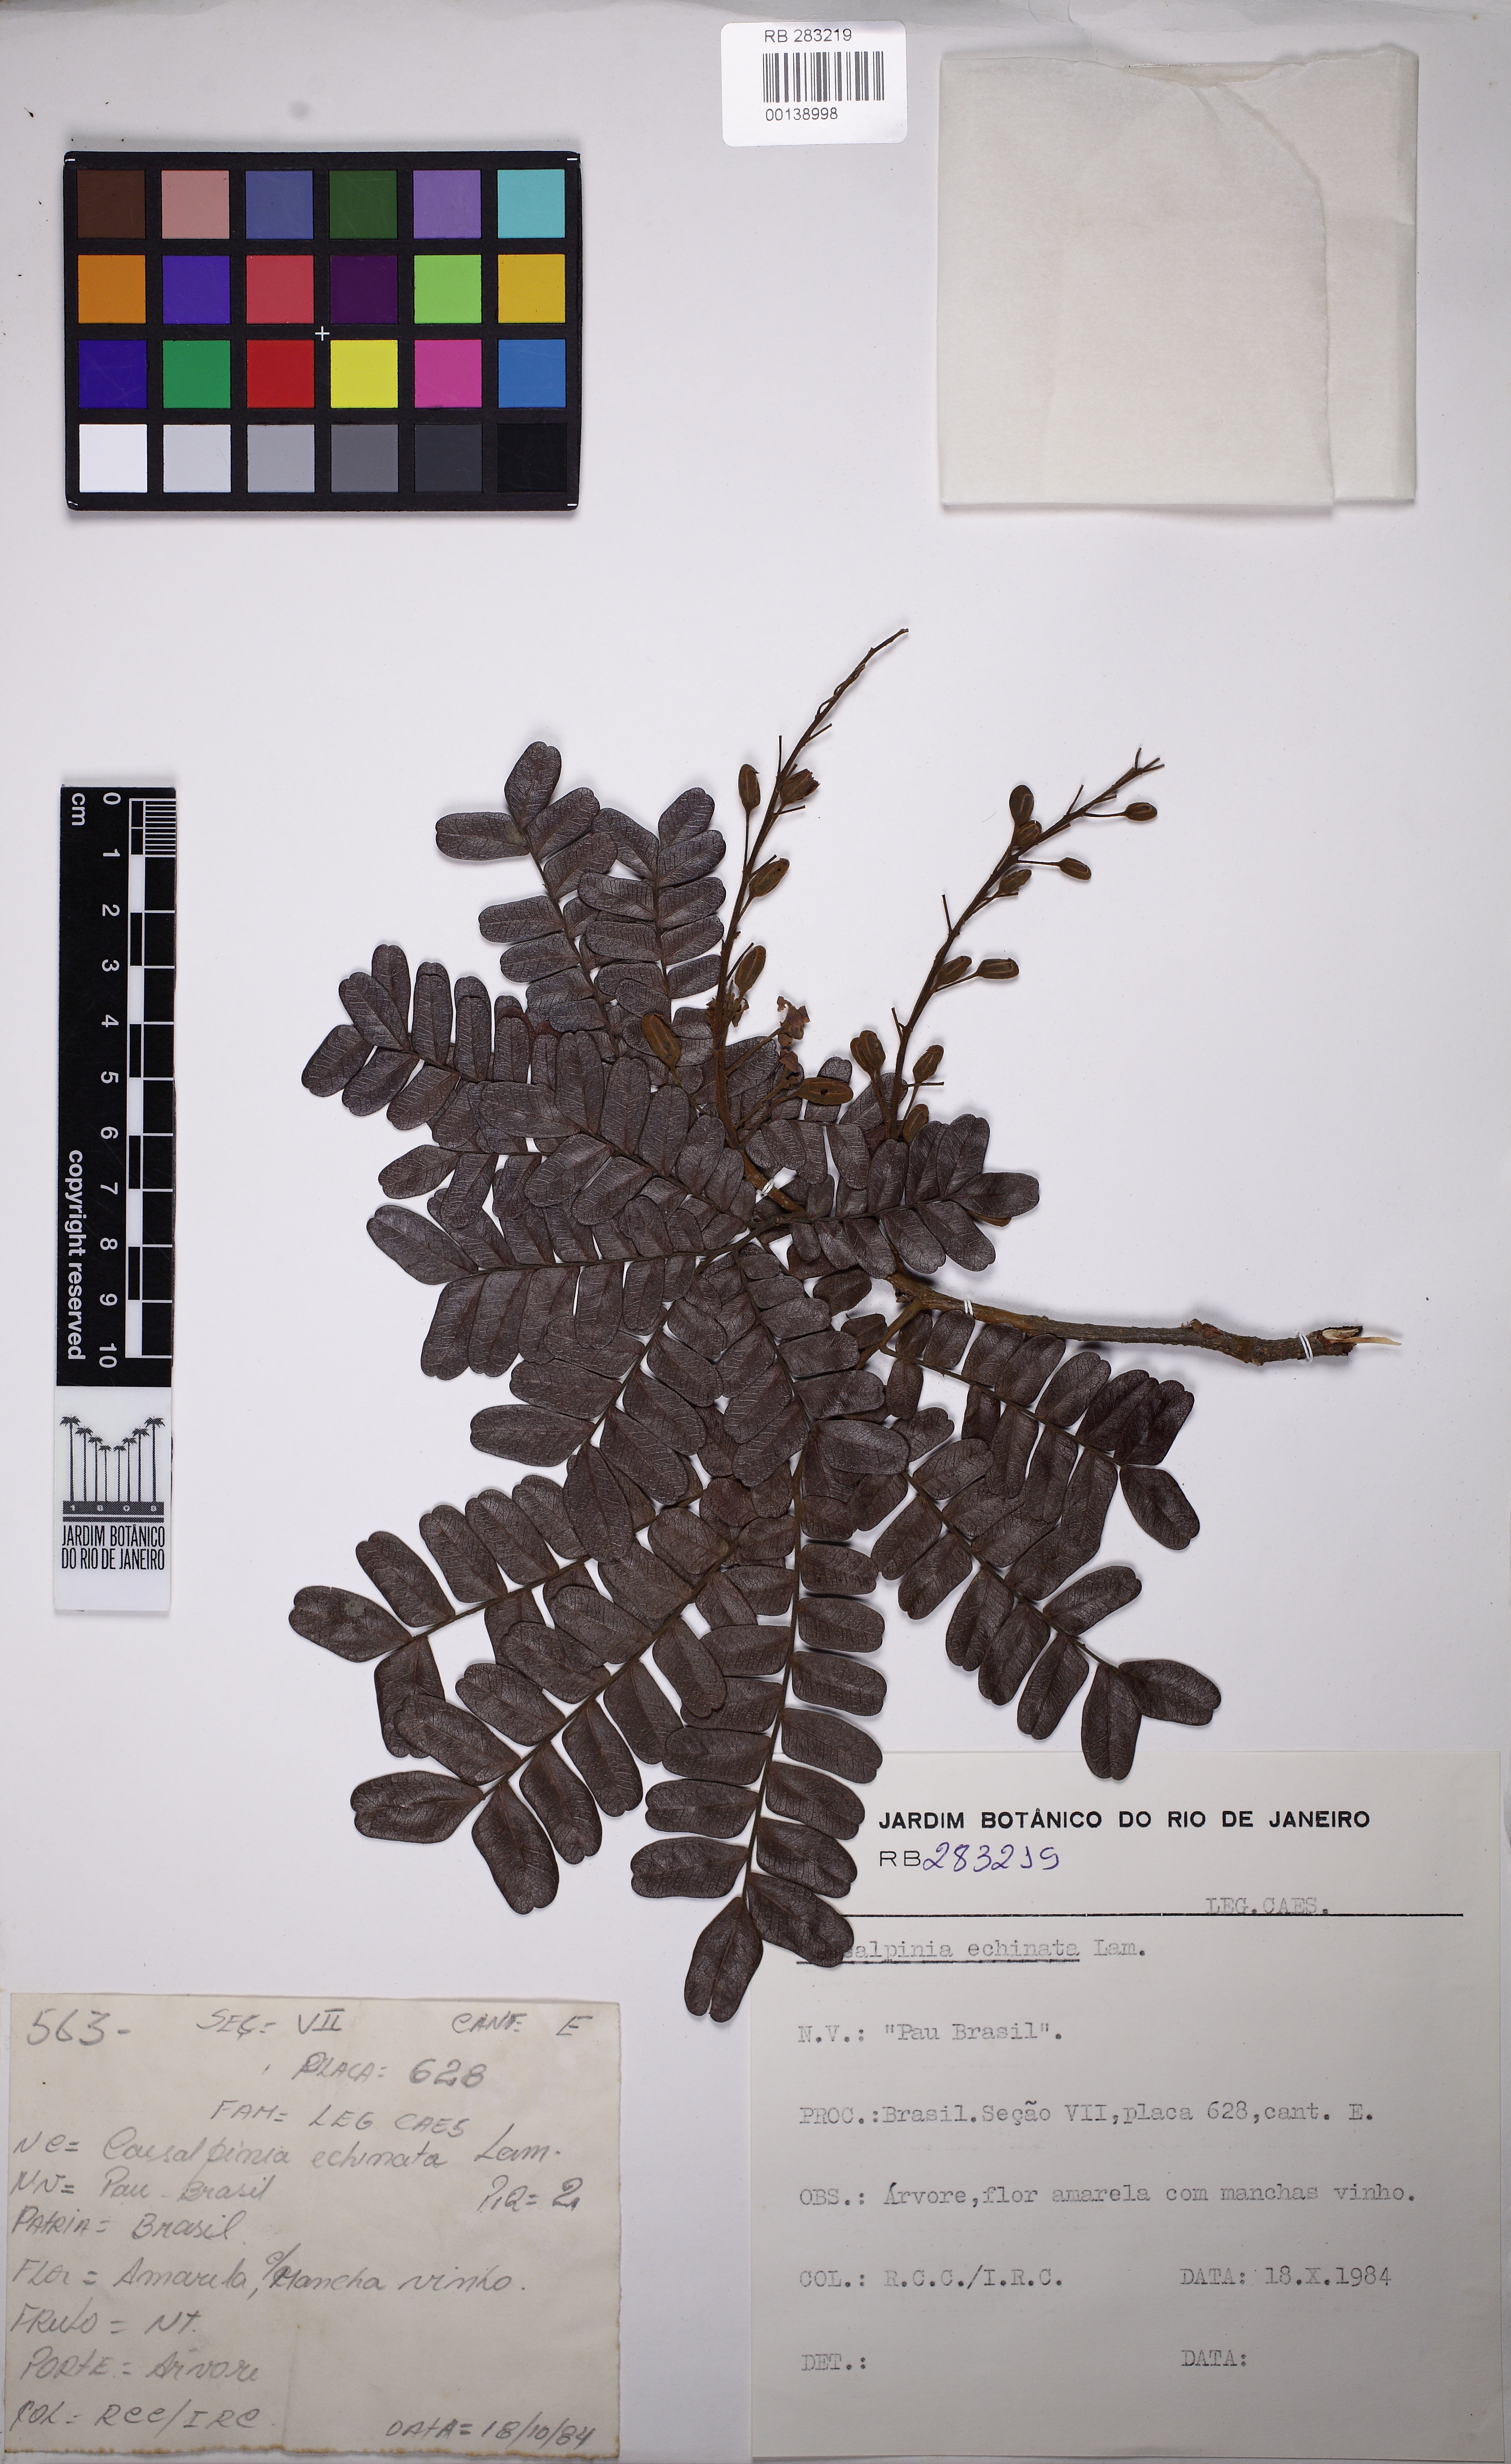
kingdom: Plantae
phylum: Tracheophyta
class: Magnoliopsida
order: Fabales
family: Fabaceae
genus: Paubrasilia
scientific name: Paubrasilia echinata
